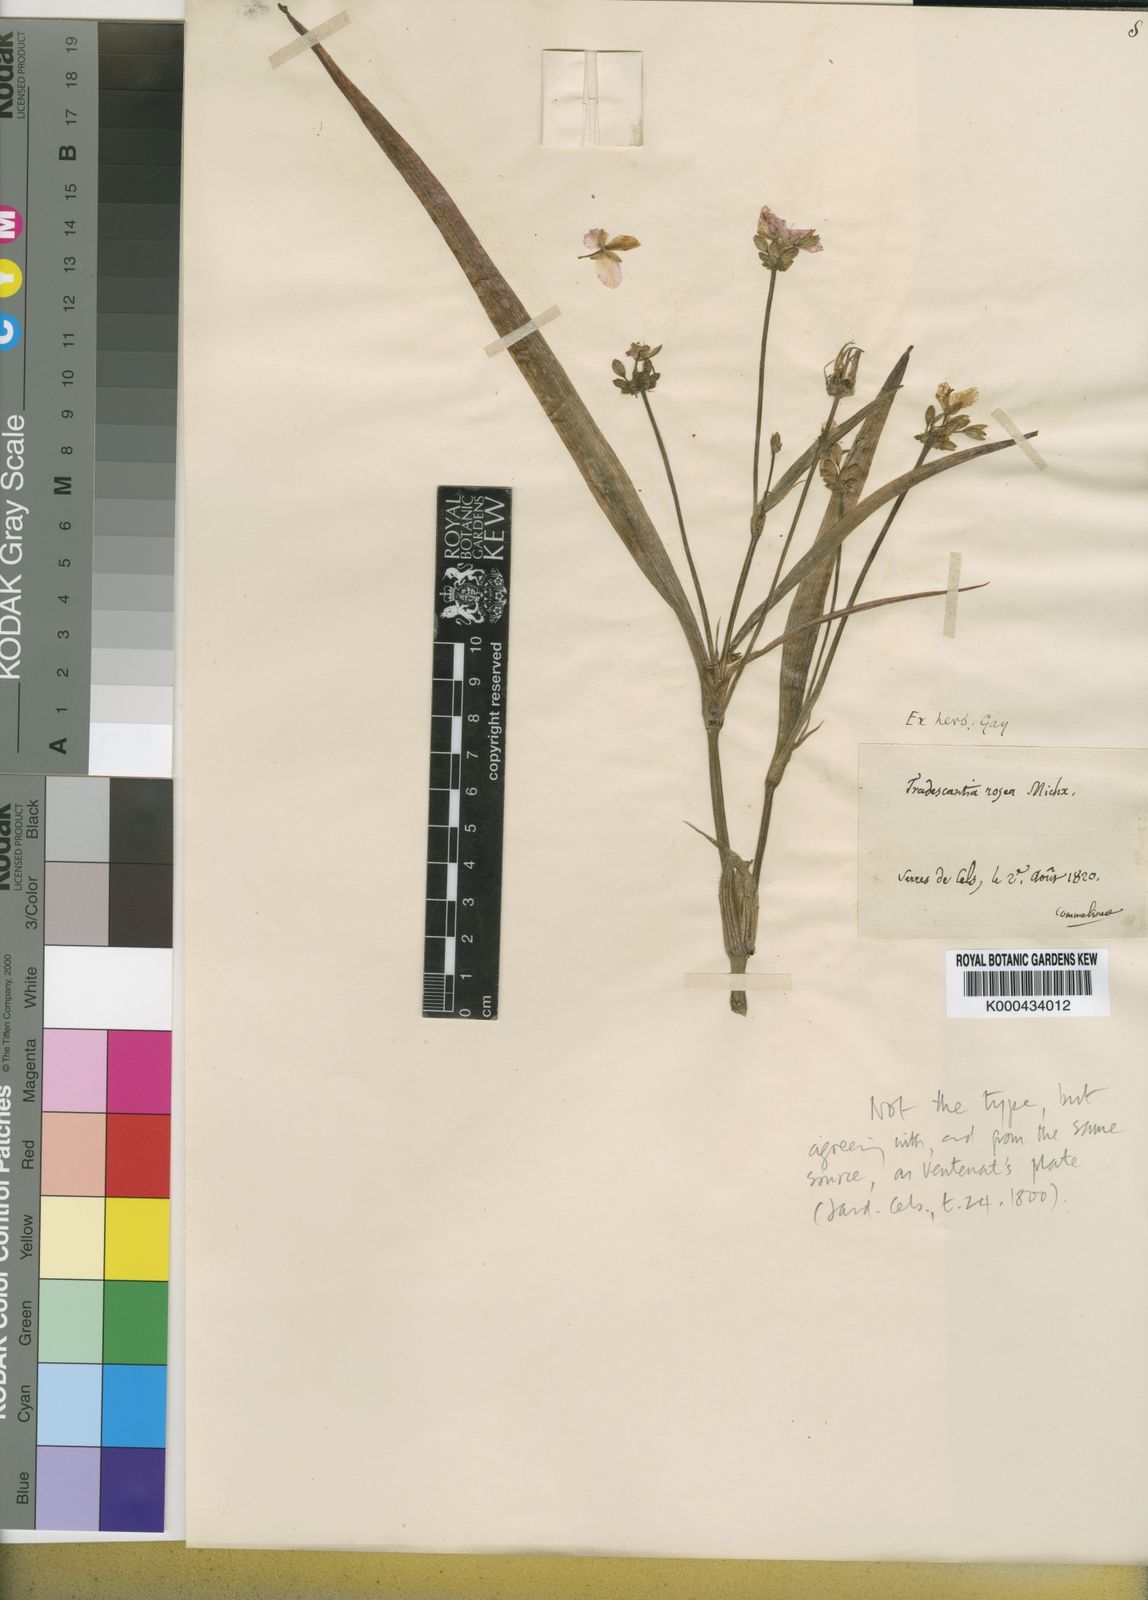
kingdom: Plantae
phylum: Tracheophyta
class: Liliopsida
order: Commelinales
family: Commelinaceae
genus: Callisia
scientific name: Callisia rosea
